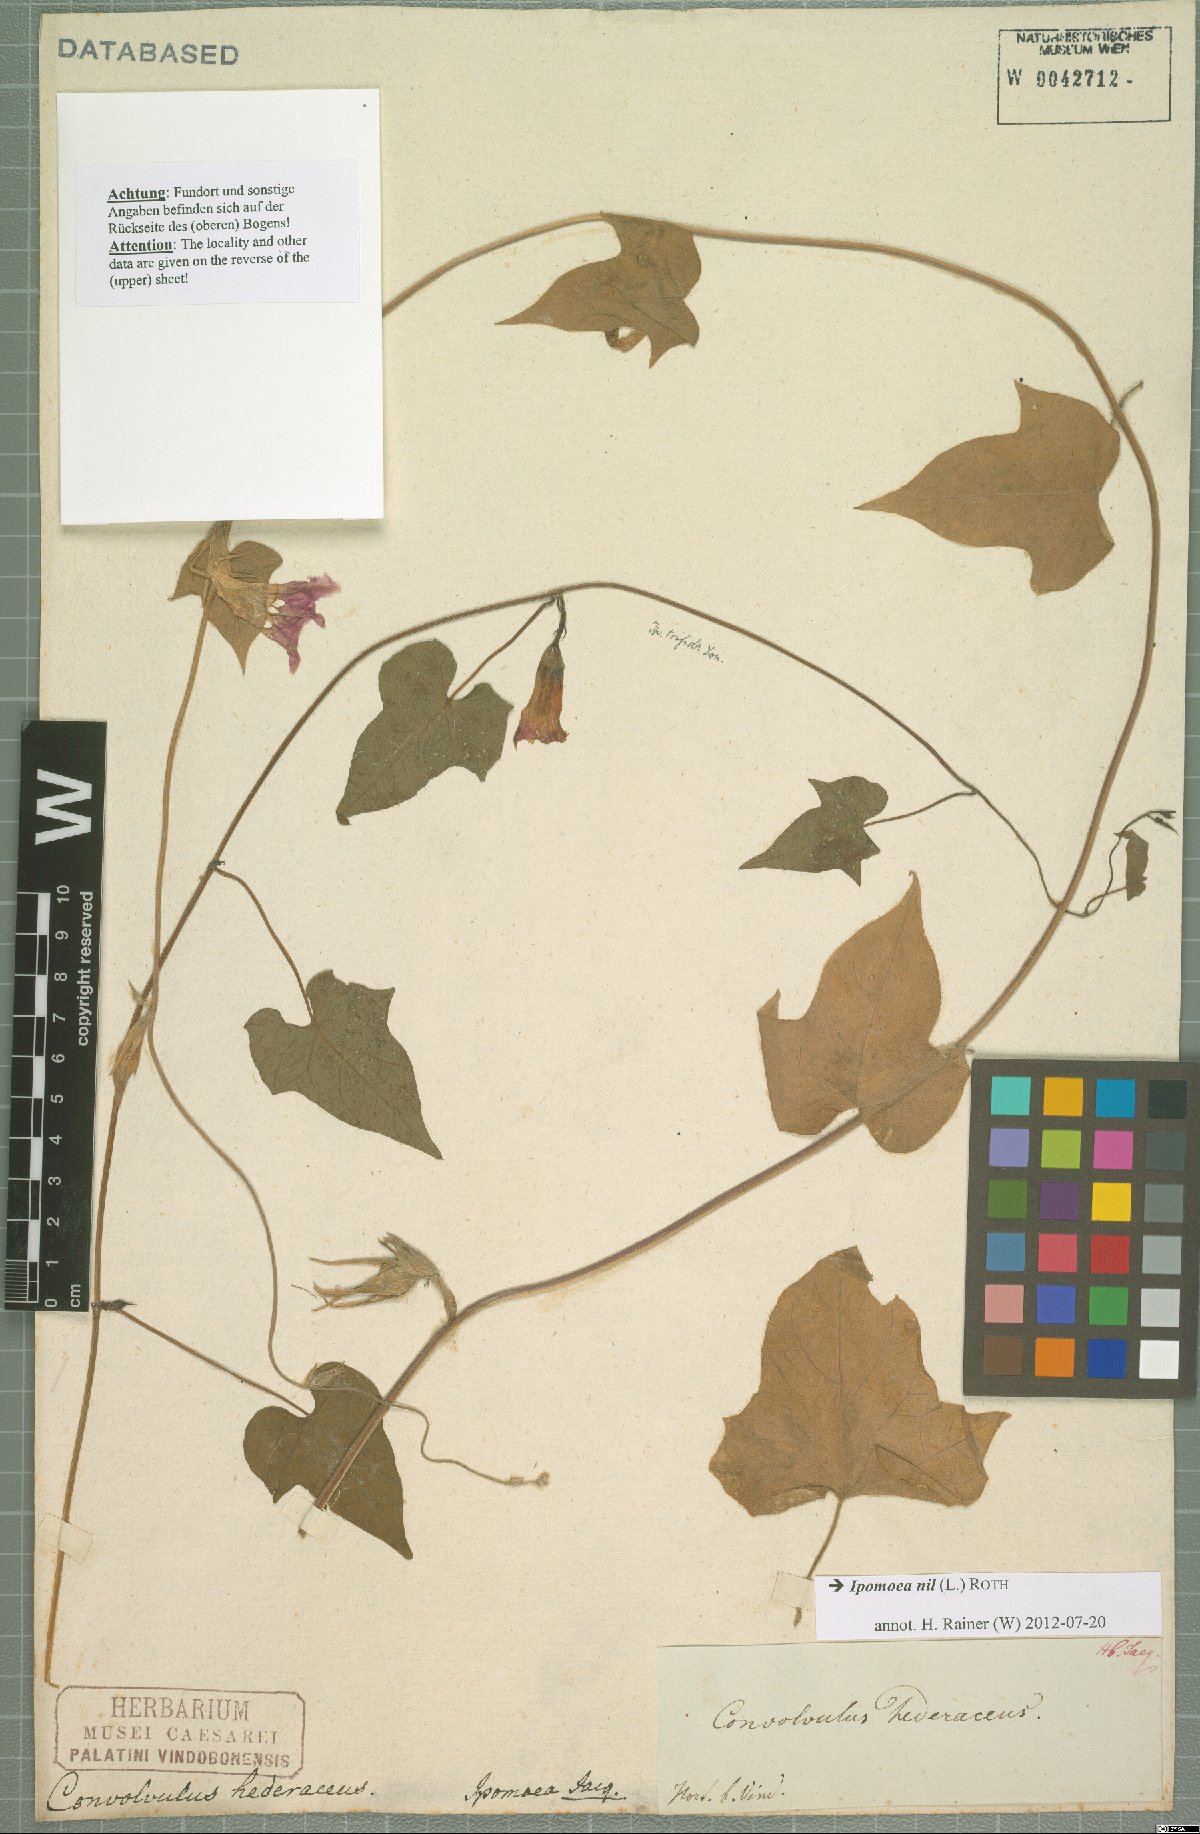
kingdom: Plantae
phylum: Tracheophyta
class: Magnoliopsida
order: Solanales
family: Convolvulaceae
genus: Ipomoea
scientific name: Ipomoea nil
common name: Japanese morning-glory
